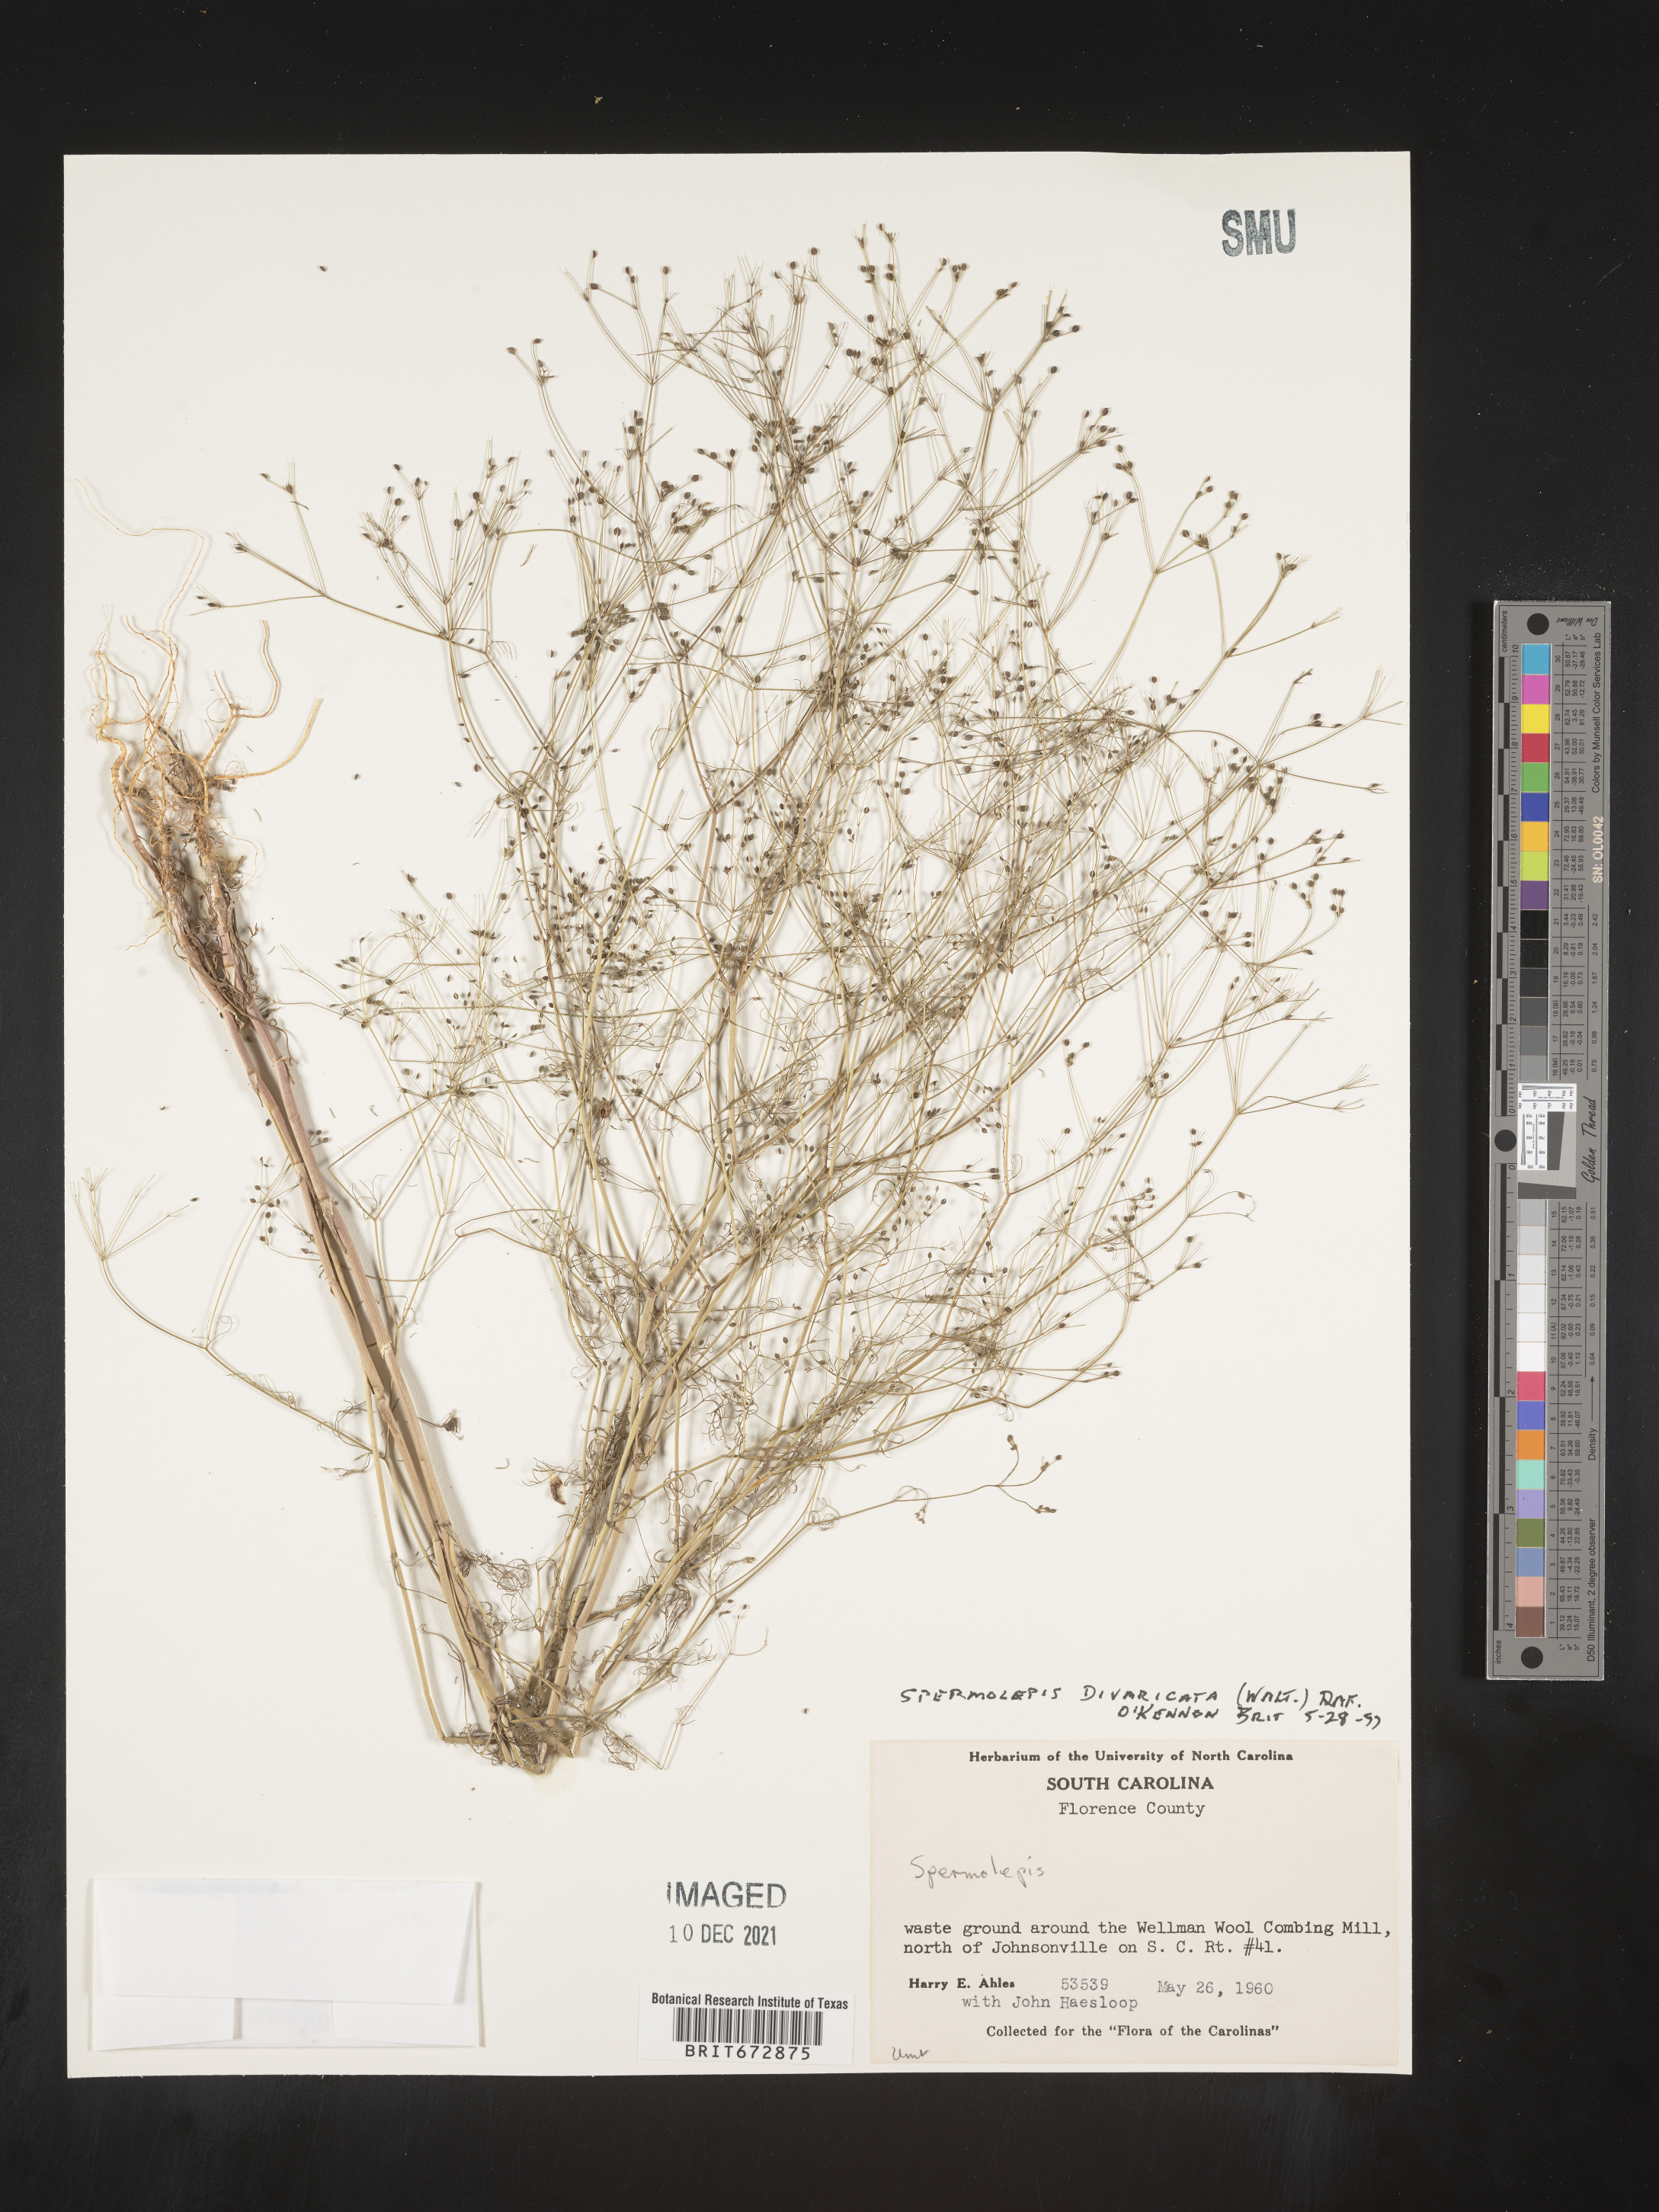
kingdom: Plantae
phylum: Tracheophyta
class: Magnoliopsida
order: Apiales
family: Apiaceae
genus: Spermolepis
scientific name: Spermolepis divaricata
